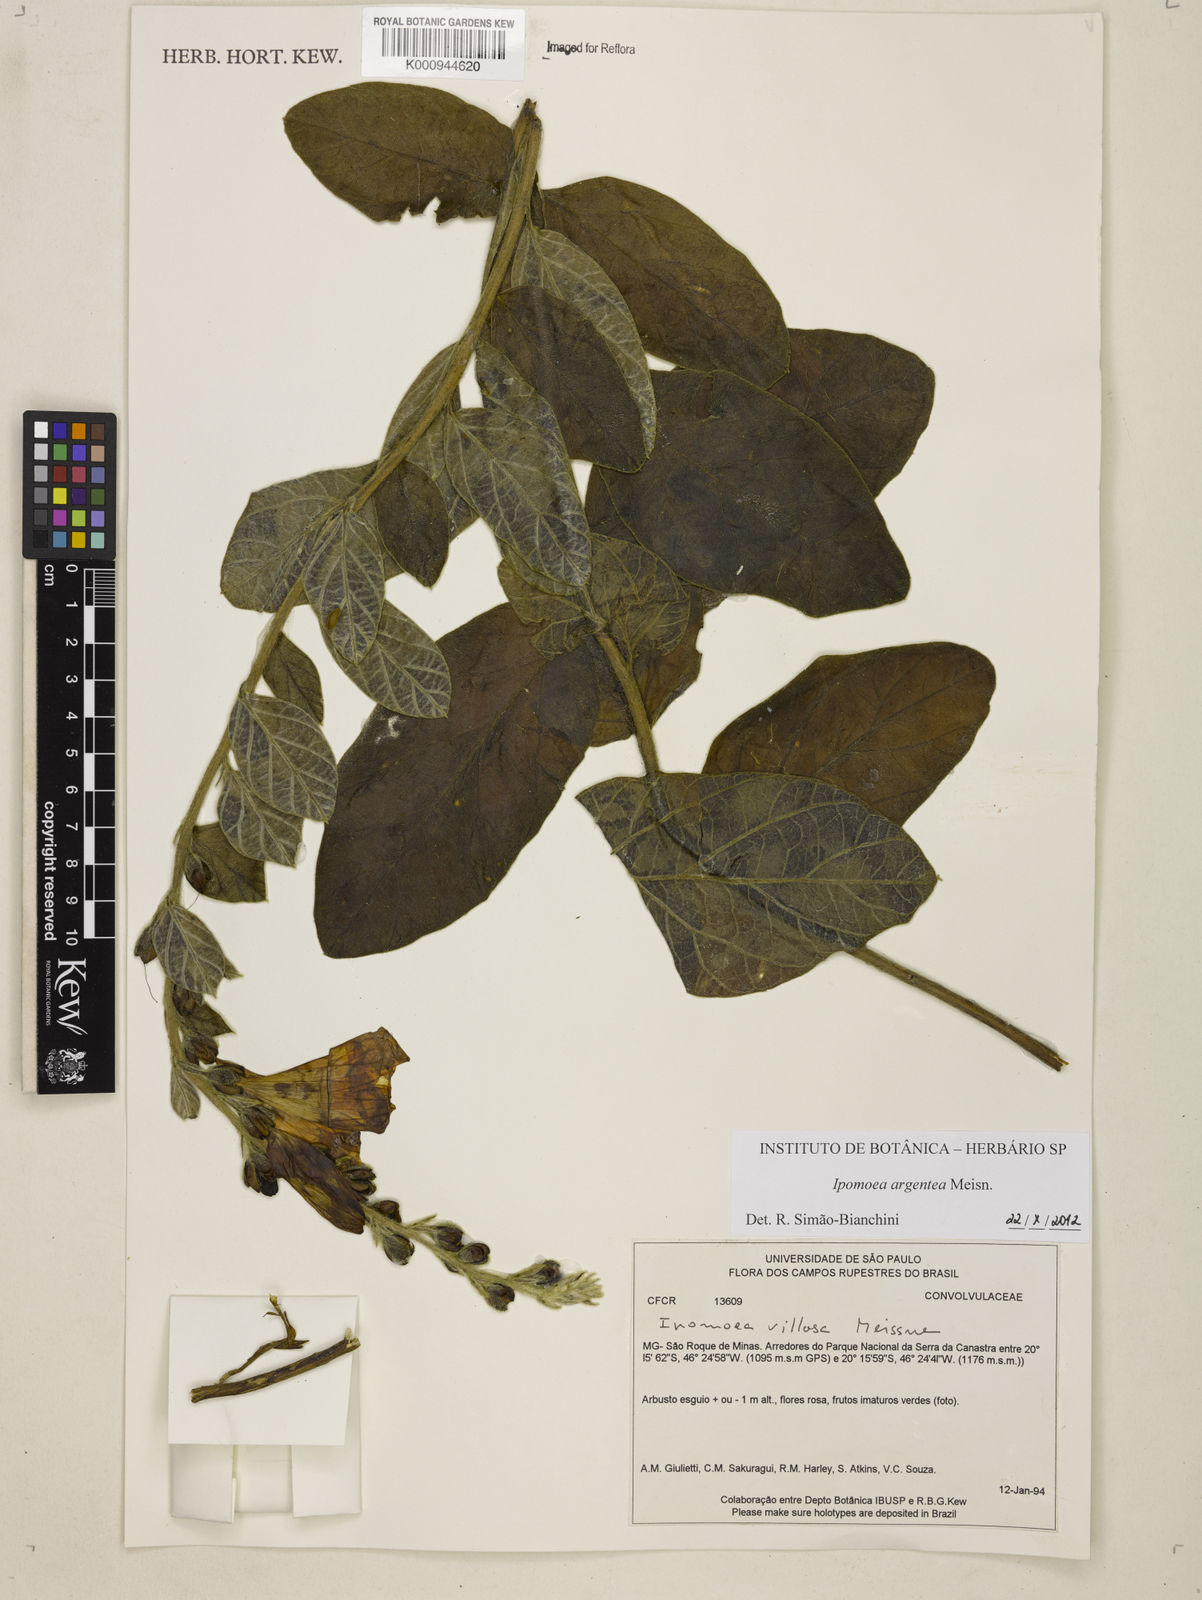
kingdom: Plantae
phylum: Tracheophyta
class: Magnoliopsida
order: Solanales
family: Convolvulaceae
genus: Ipomoea
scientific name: Ipomoea argentea
